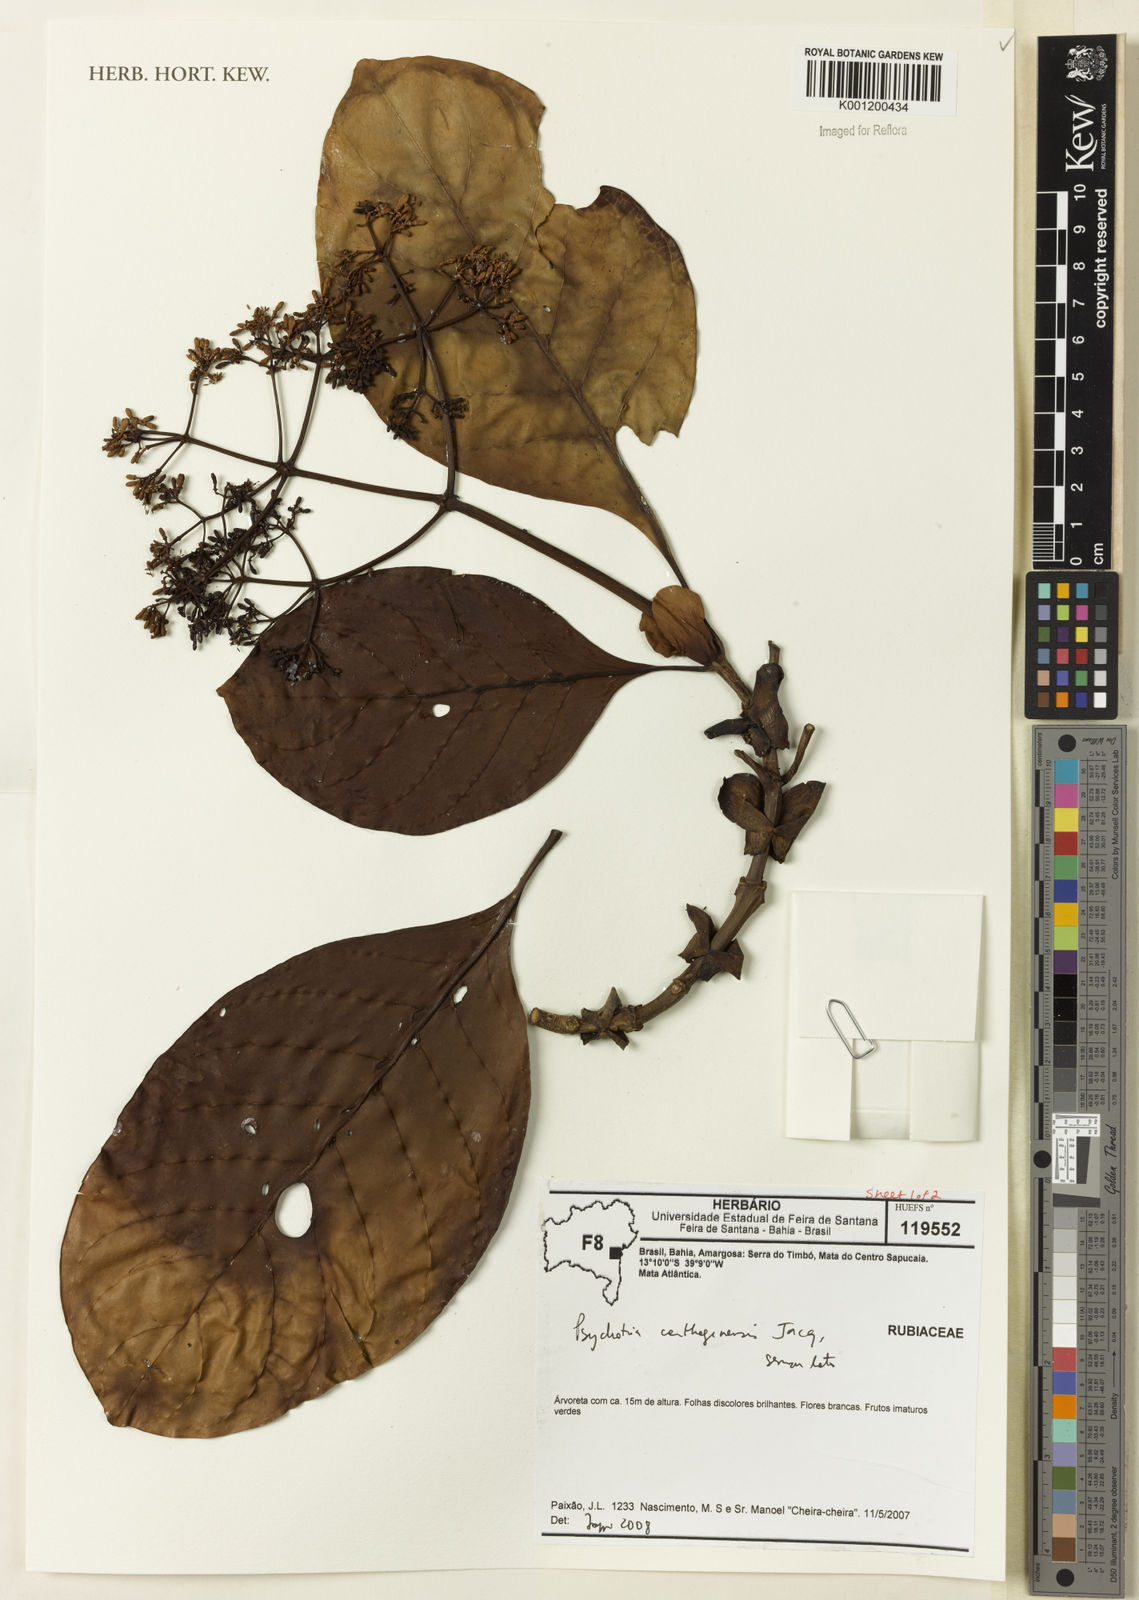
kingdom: Plantae
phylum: Tracheophyta
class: Magnoliopsida
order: Gentianales
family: Rubiaceae
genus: Psychotria
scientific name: Psychotria carthagenensis
